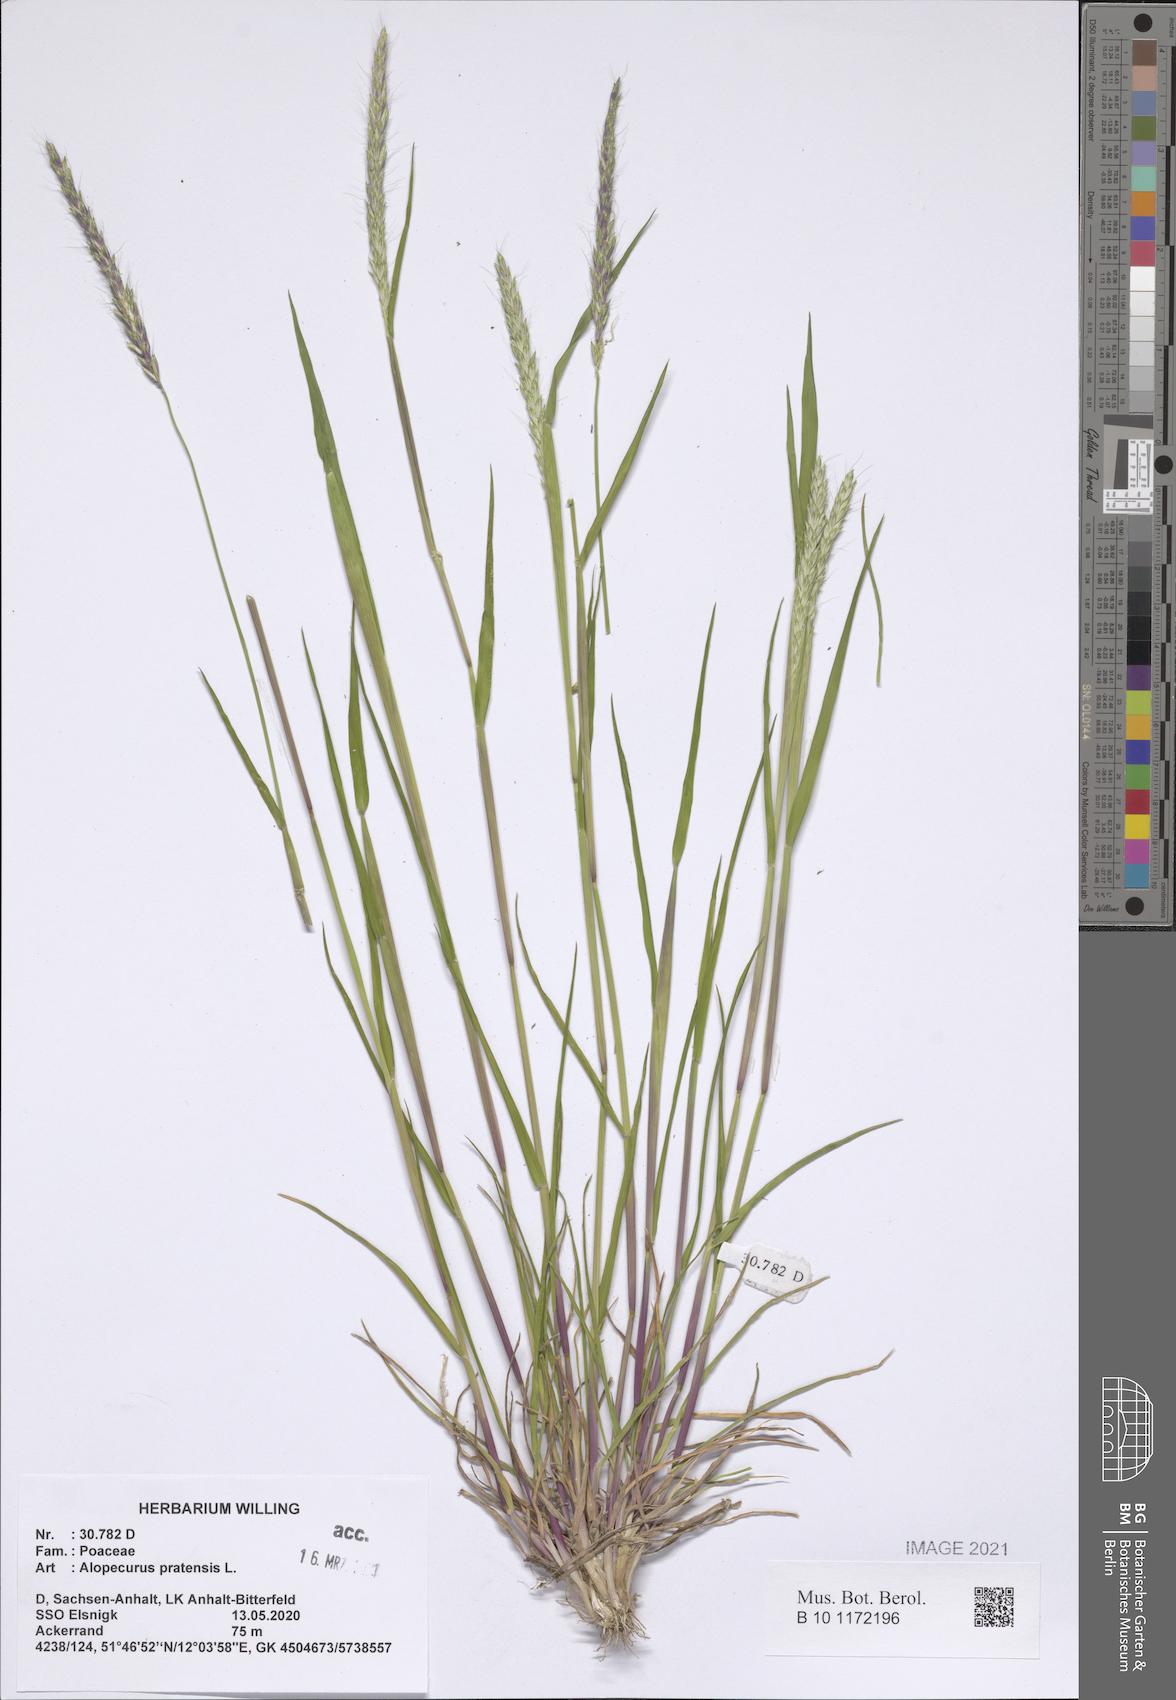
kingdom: Plantae
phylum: Tracheophyta
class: Liliopsida
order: Poales
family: Poaceae
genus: Alopecurus
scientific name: Alopecurus pratensis
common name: Meadow foxtail
